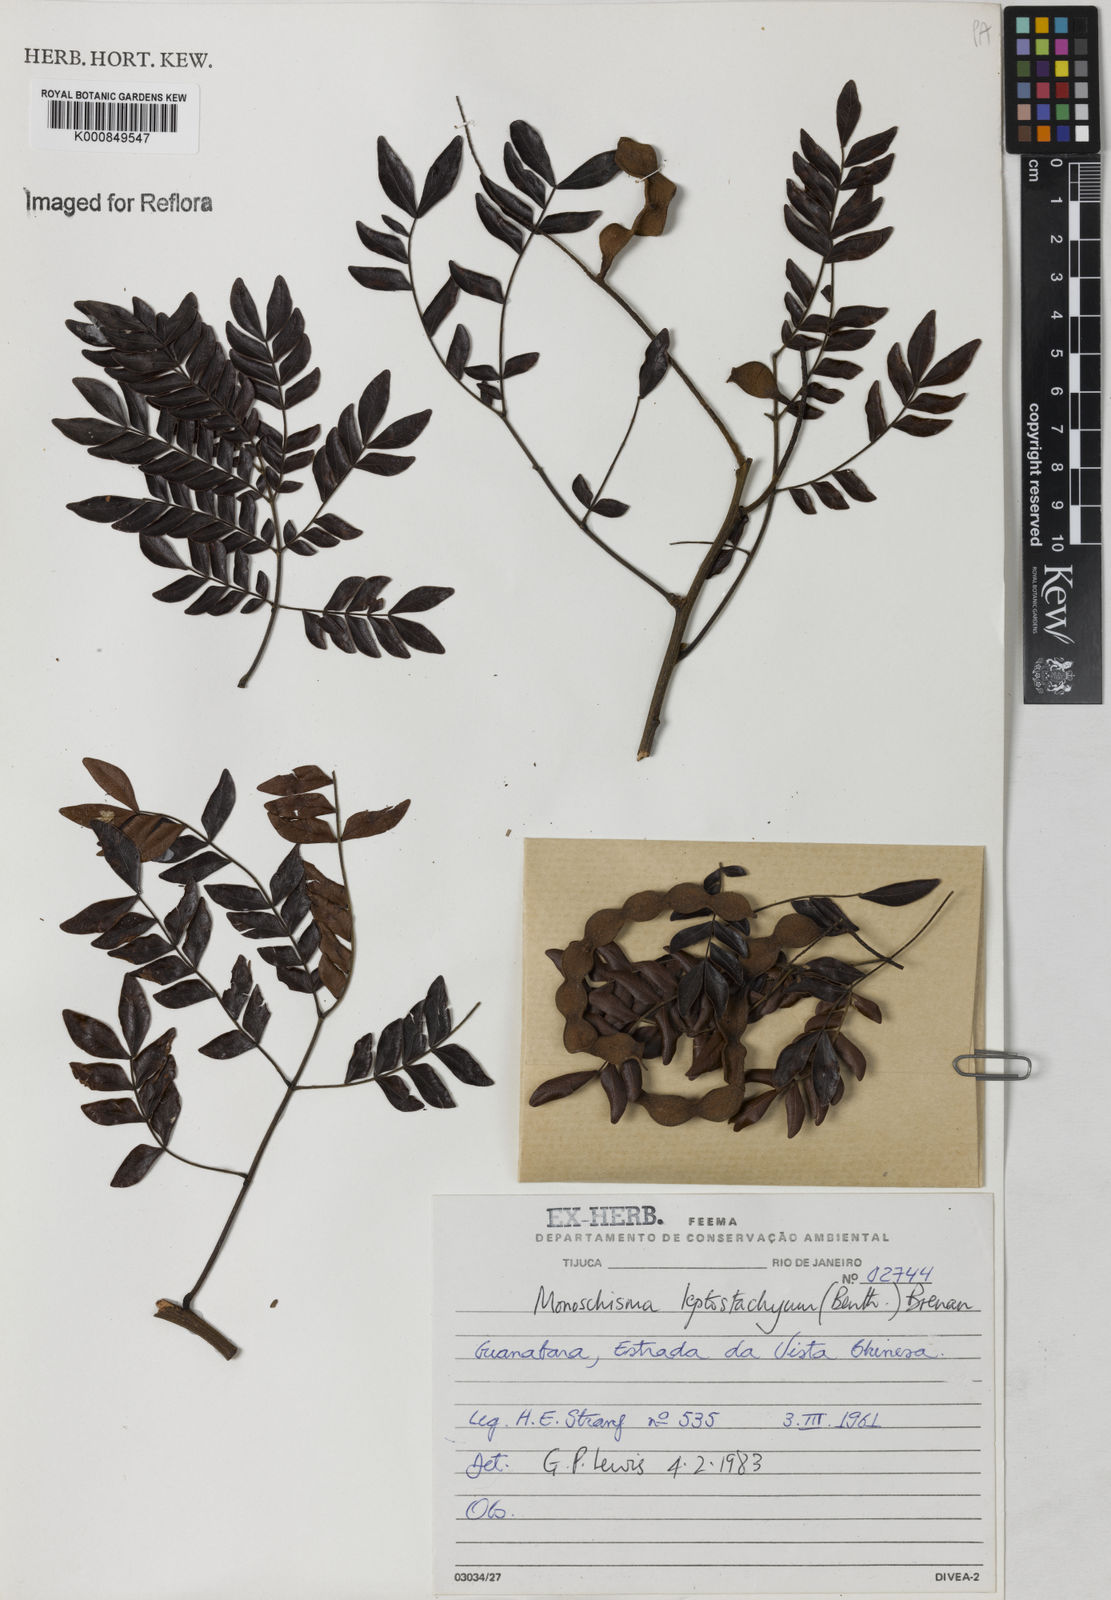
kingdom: Plantae
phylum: Tracheophyta
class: Magnoliopsida
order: Fabales
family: Fabaceae
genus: Pseudopiptadenia
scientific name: Pseudopiptadenia leptostachya
